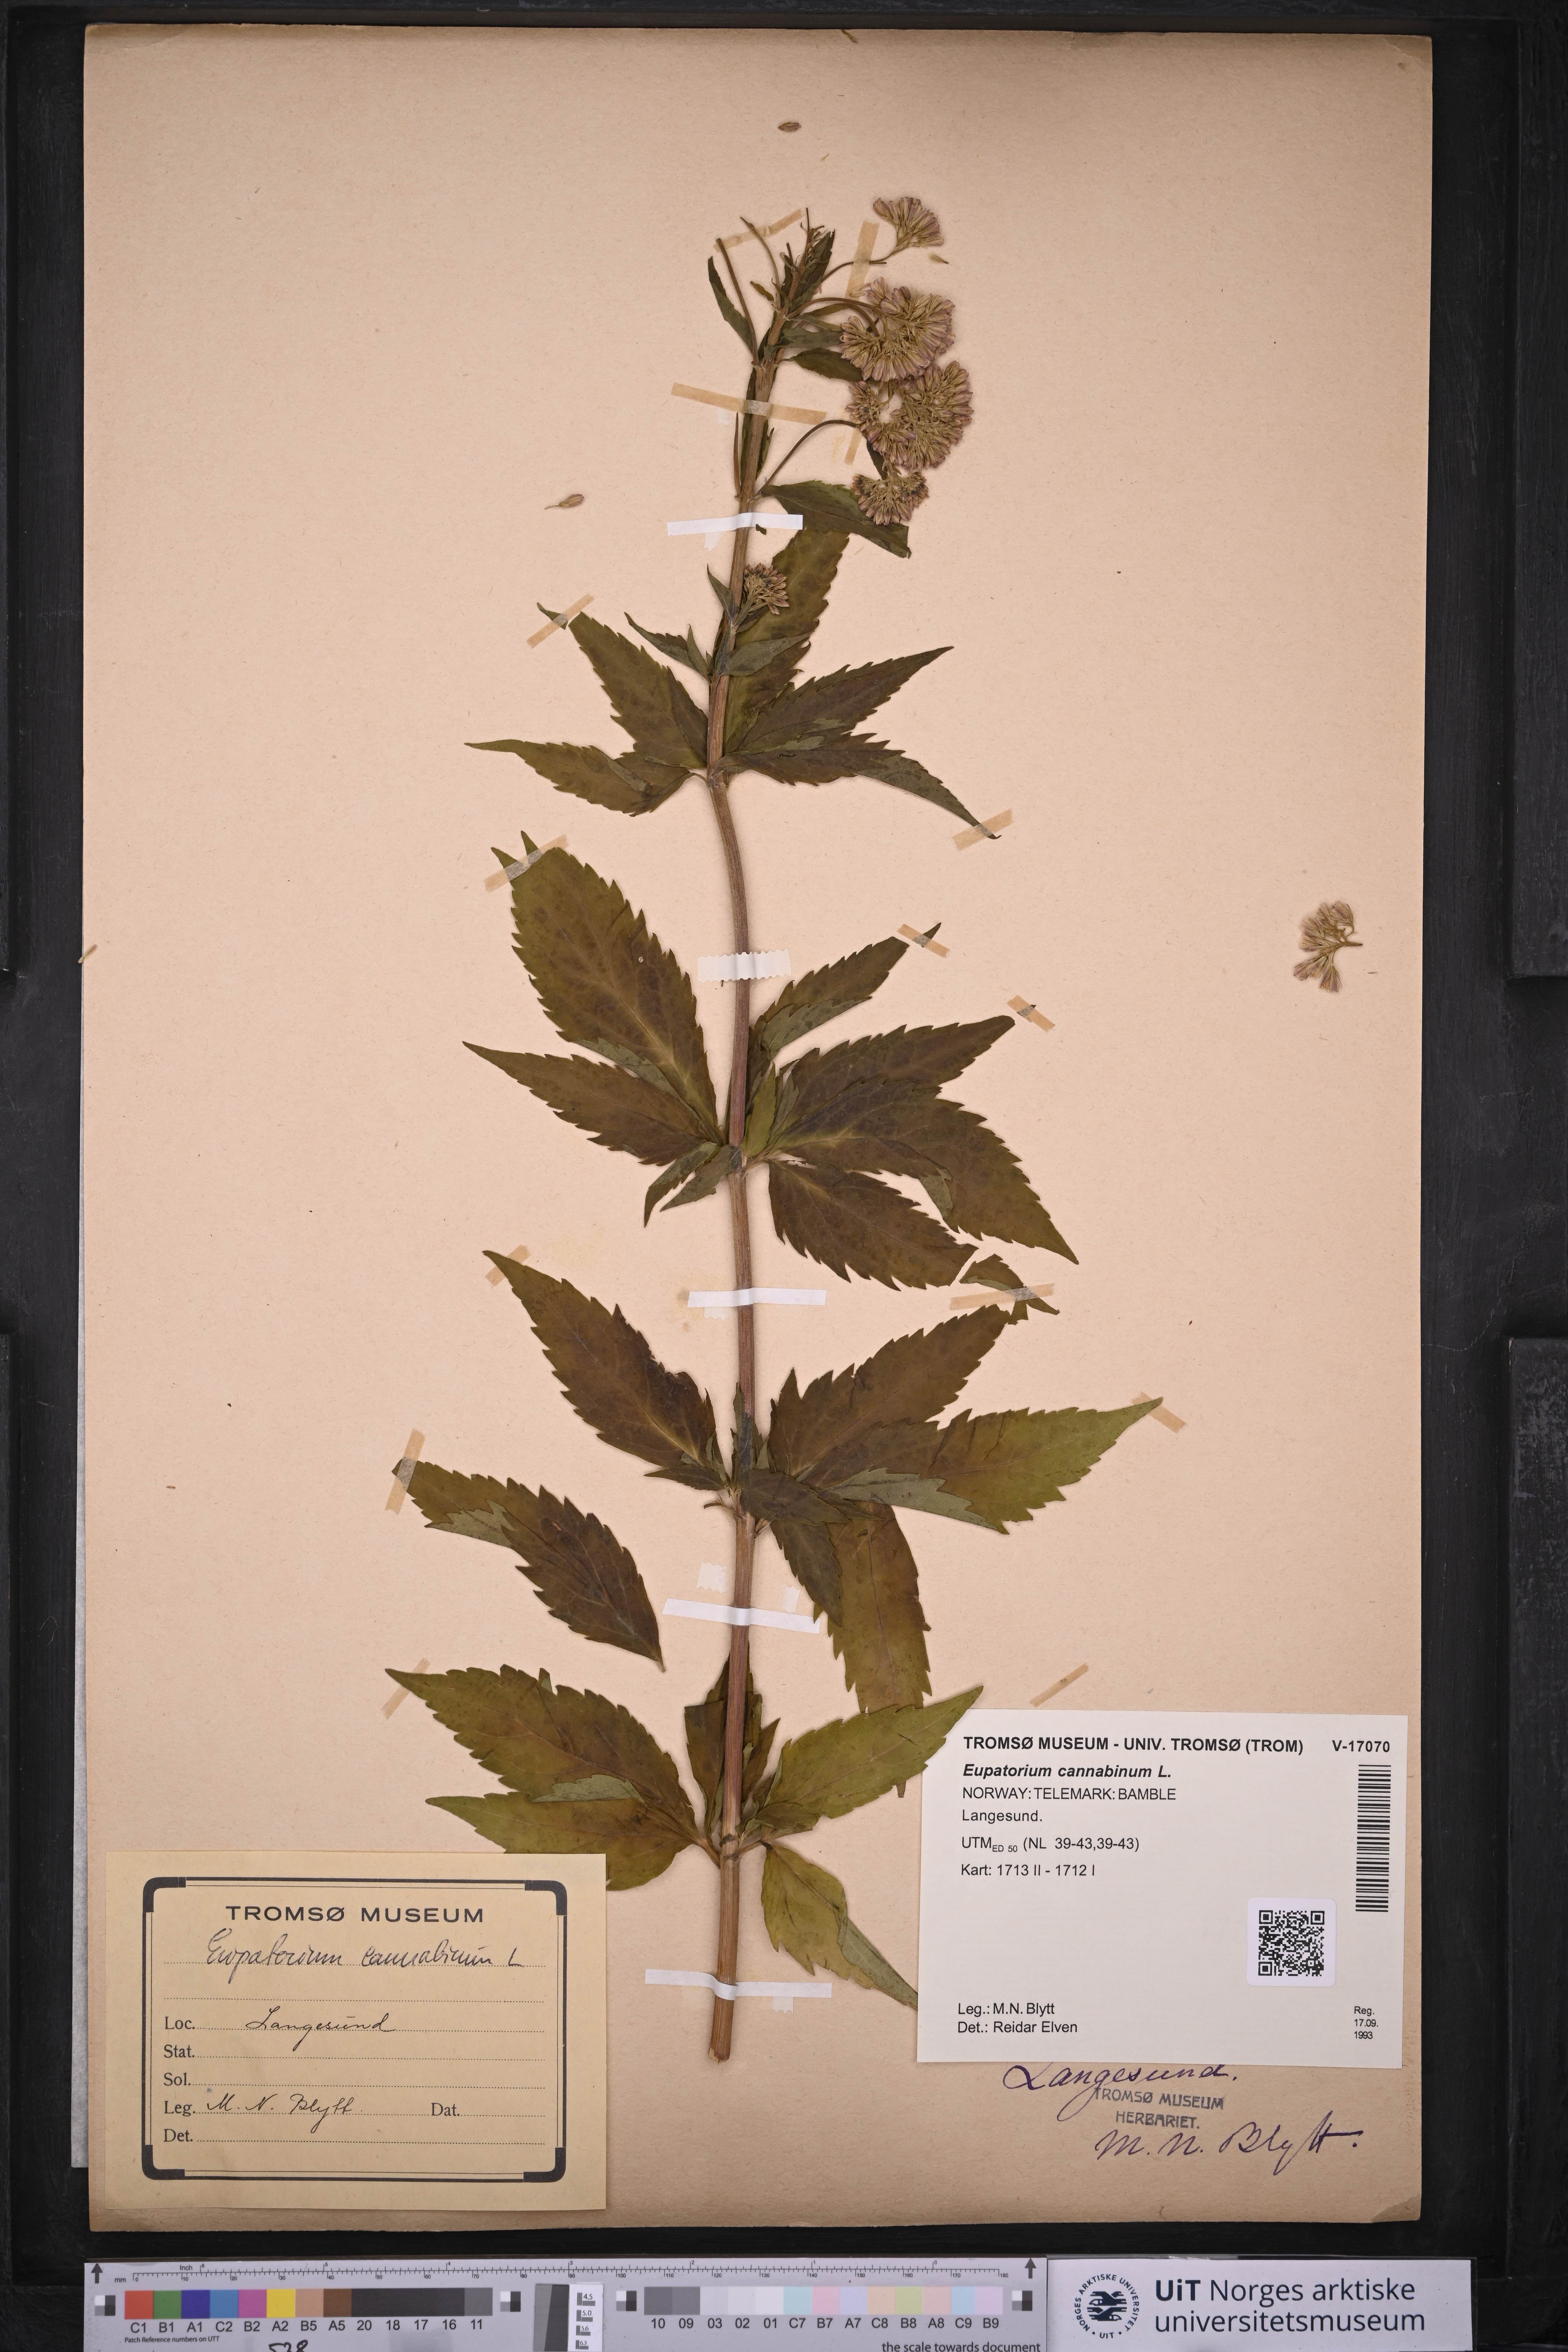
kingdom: Plantae
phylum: Tracheophyta
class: Magnoliopsida
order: Asterales
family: Asteraceae
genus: Eupatorium
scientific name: Eupatorium cannabinum
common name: Hemp-agrimony
